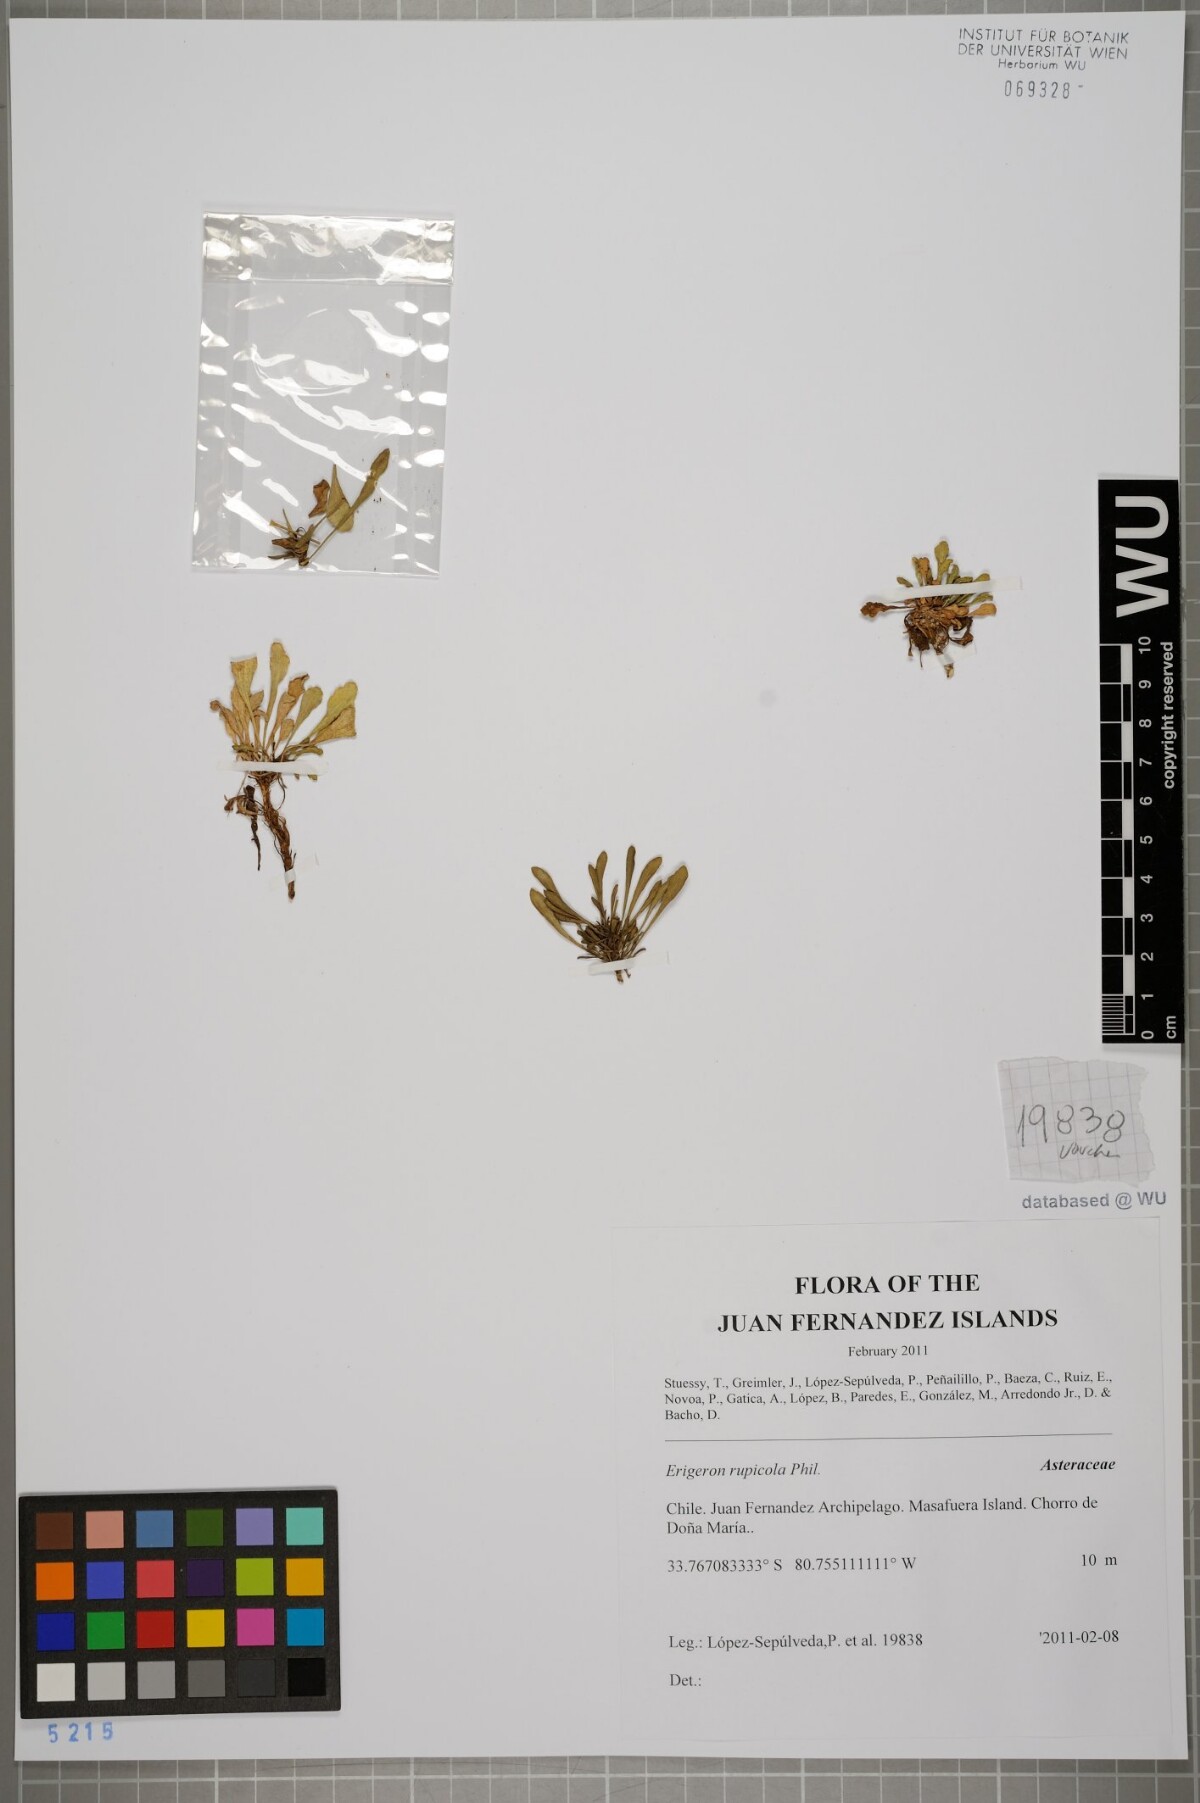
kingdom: Plantae
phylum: Tracheophyta
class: Magnoliopsida
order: Asterales
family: Asteraceae
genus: Erigeron
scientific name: Erigeron rupicola
